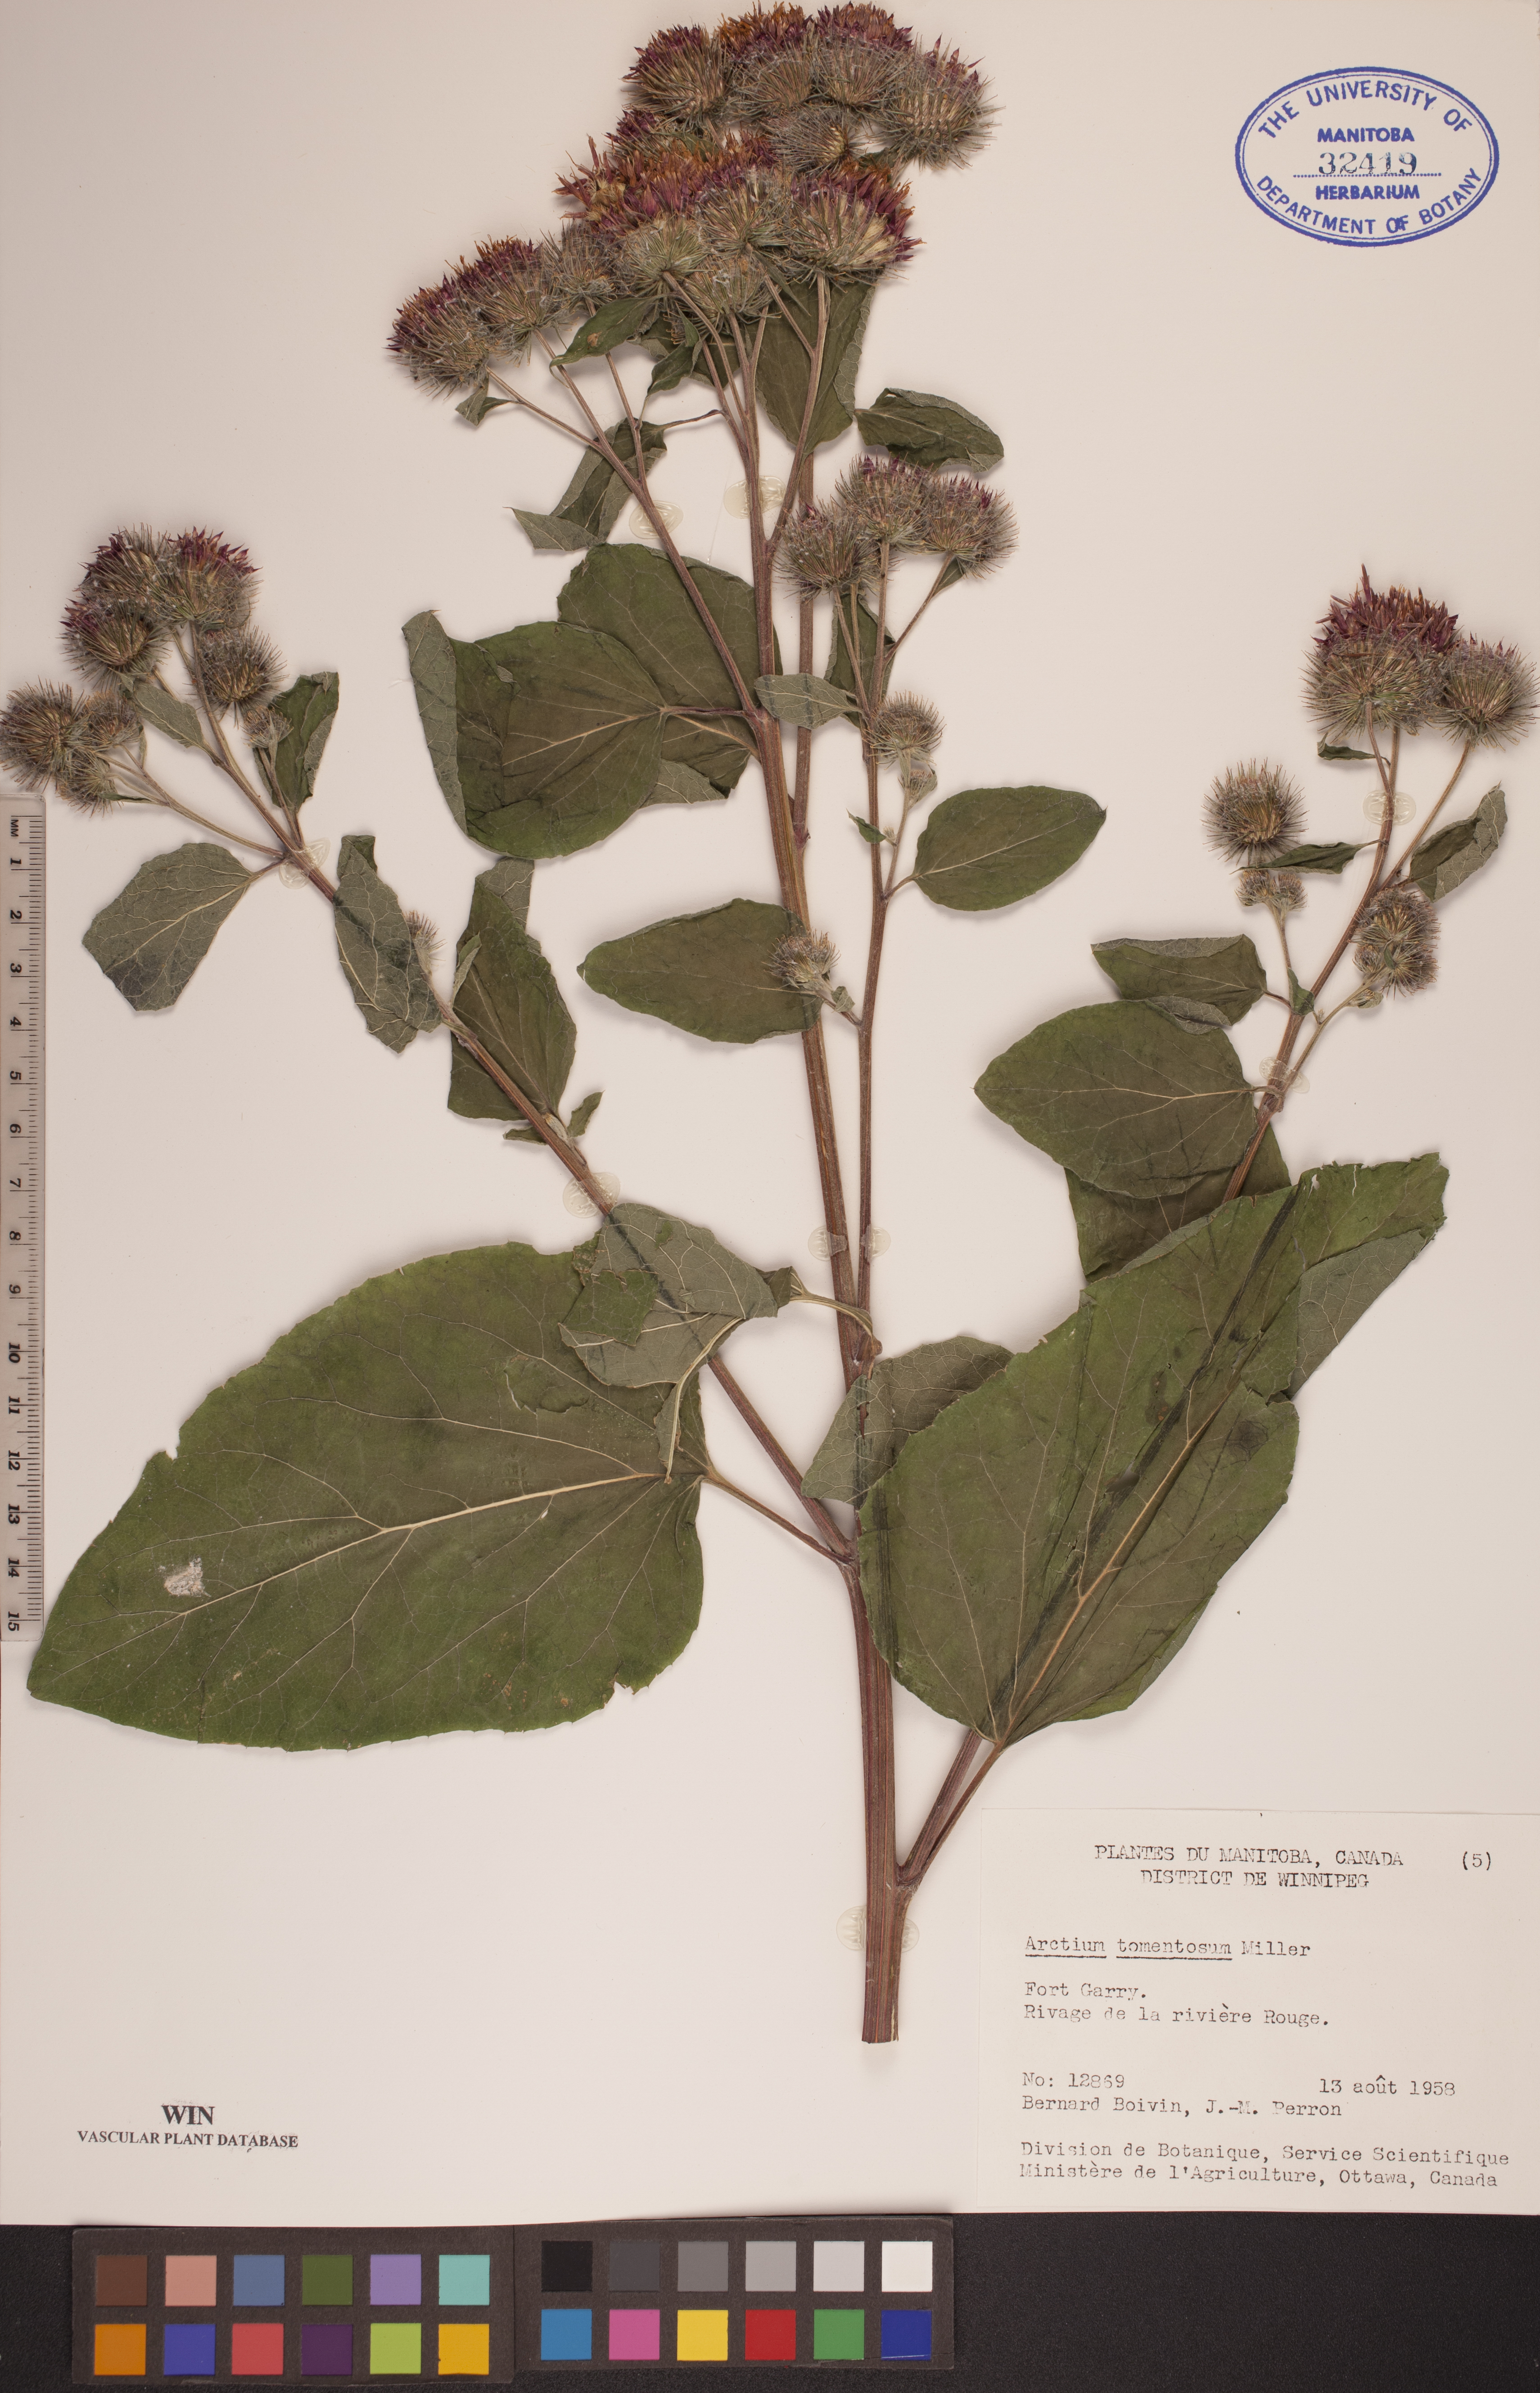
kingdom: Plantae
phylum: Tracheophyta
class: Magnoliopsida
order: Asterales
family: Asteraceae
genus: Arctium
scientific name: Arctium tomentosum
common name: Woolly burdock
